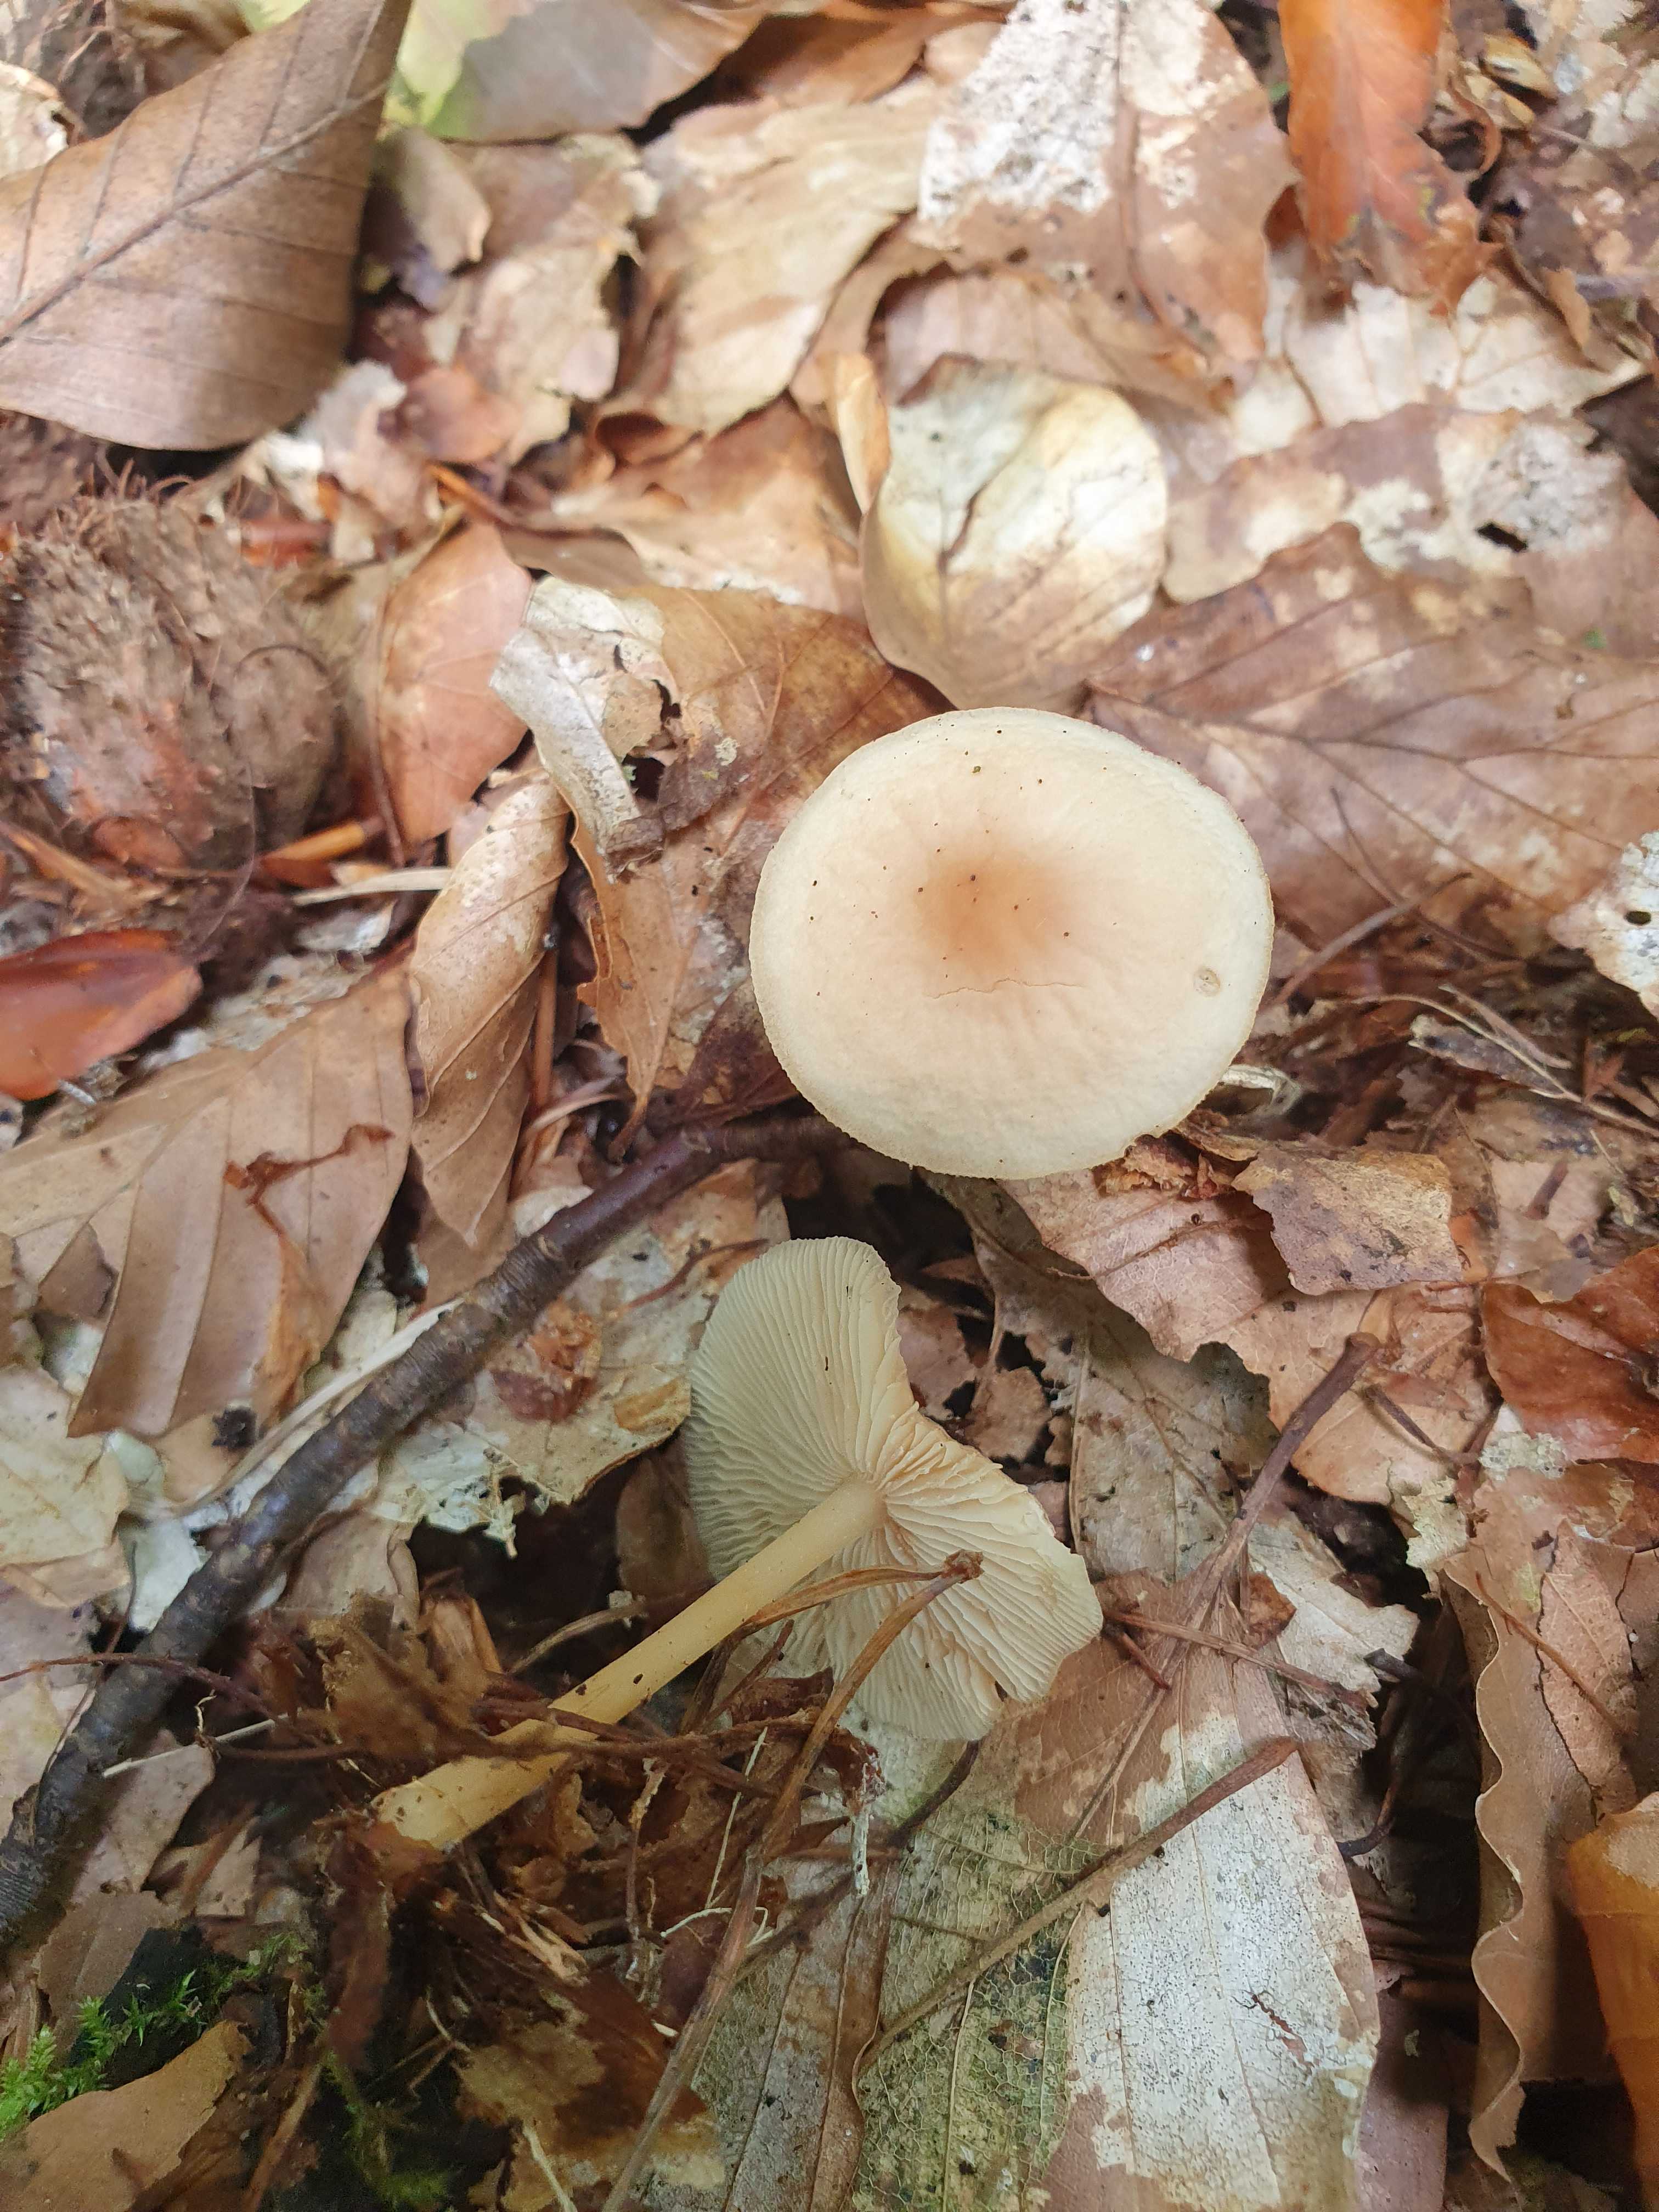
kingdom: Fungi
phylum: Basidiomycota
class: Agaricomycetes
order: Agaricales
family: Omphalotaceae
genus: Gymnopus
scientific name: Gymnopus dryophilus
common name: løv-fladhat
